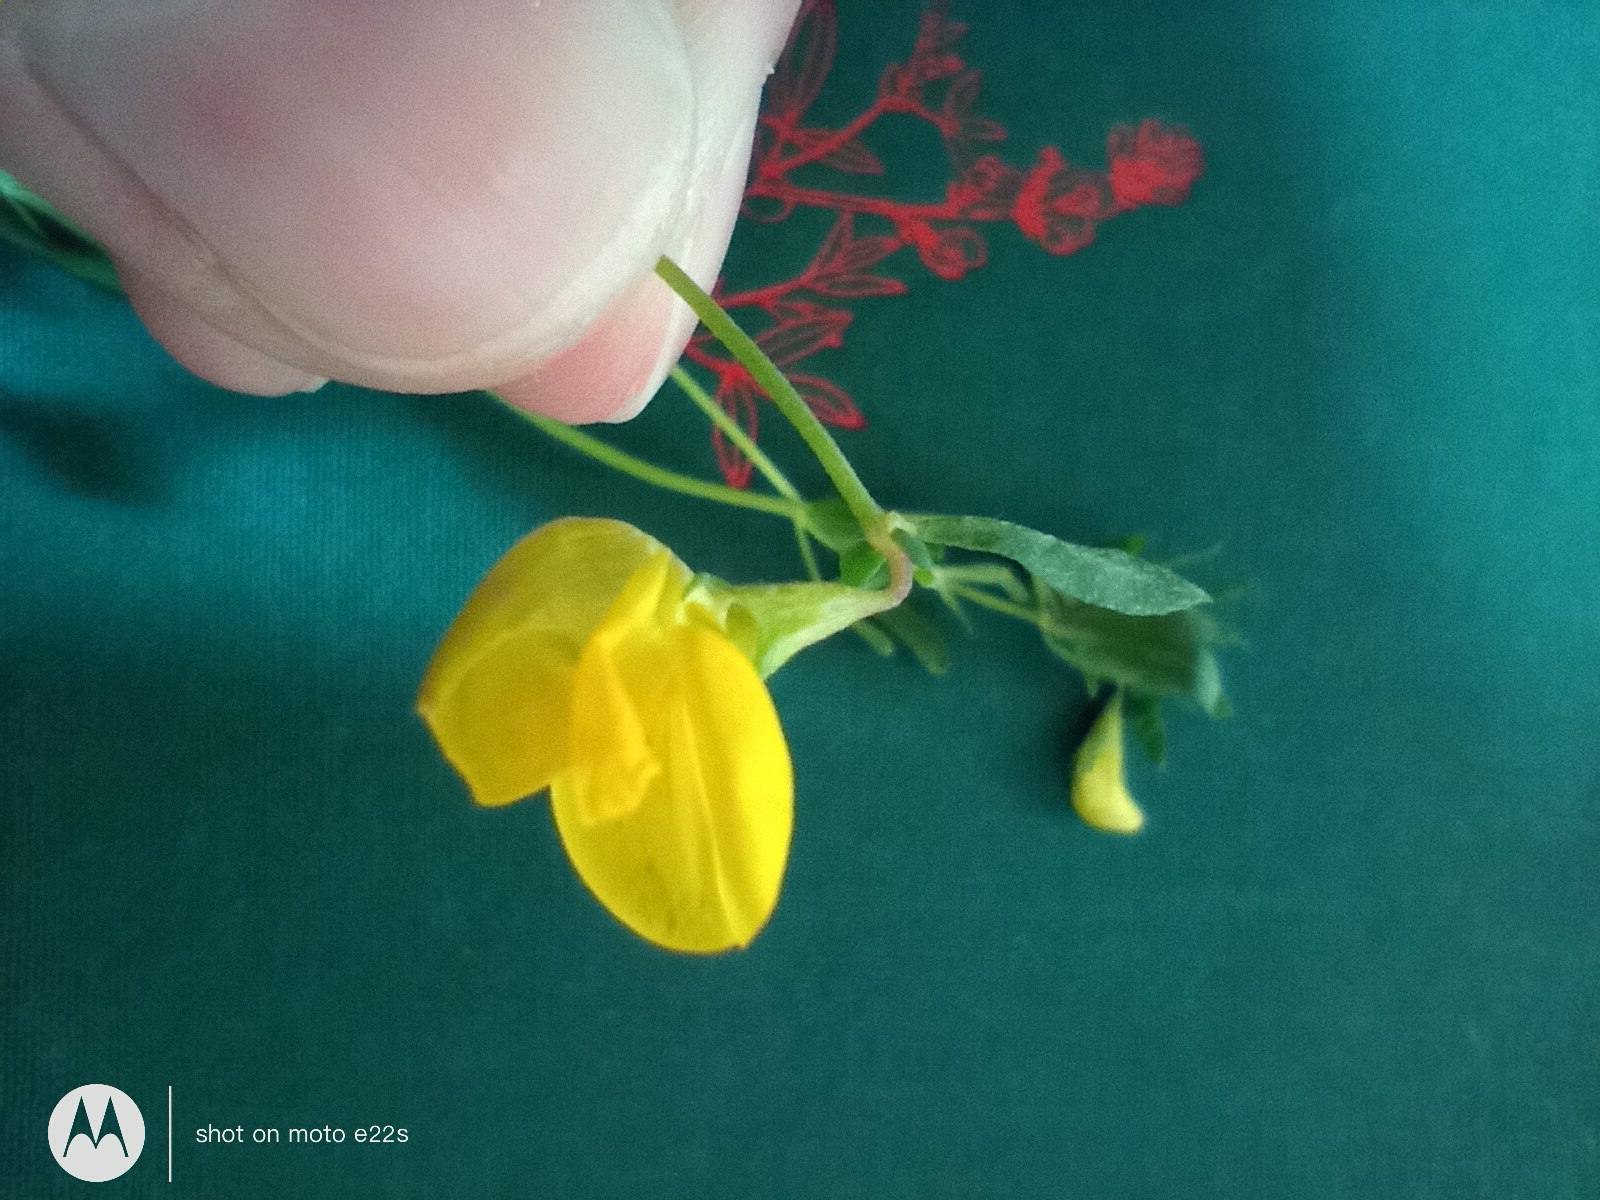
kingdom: Plantae
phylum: Tracheophyta
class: Magnoliopsida
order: Fabales
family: Fabaceae
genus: Lotus
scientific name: Lotus corniculatus
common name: Almindelig kællingetand
